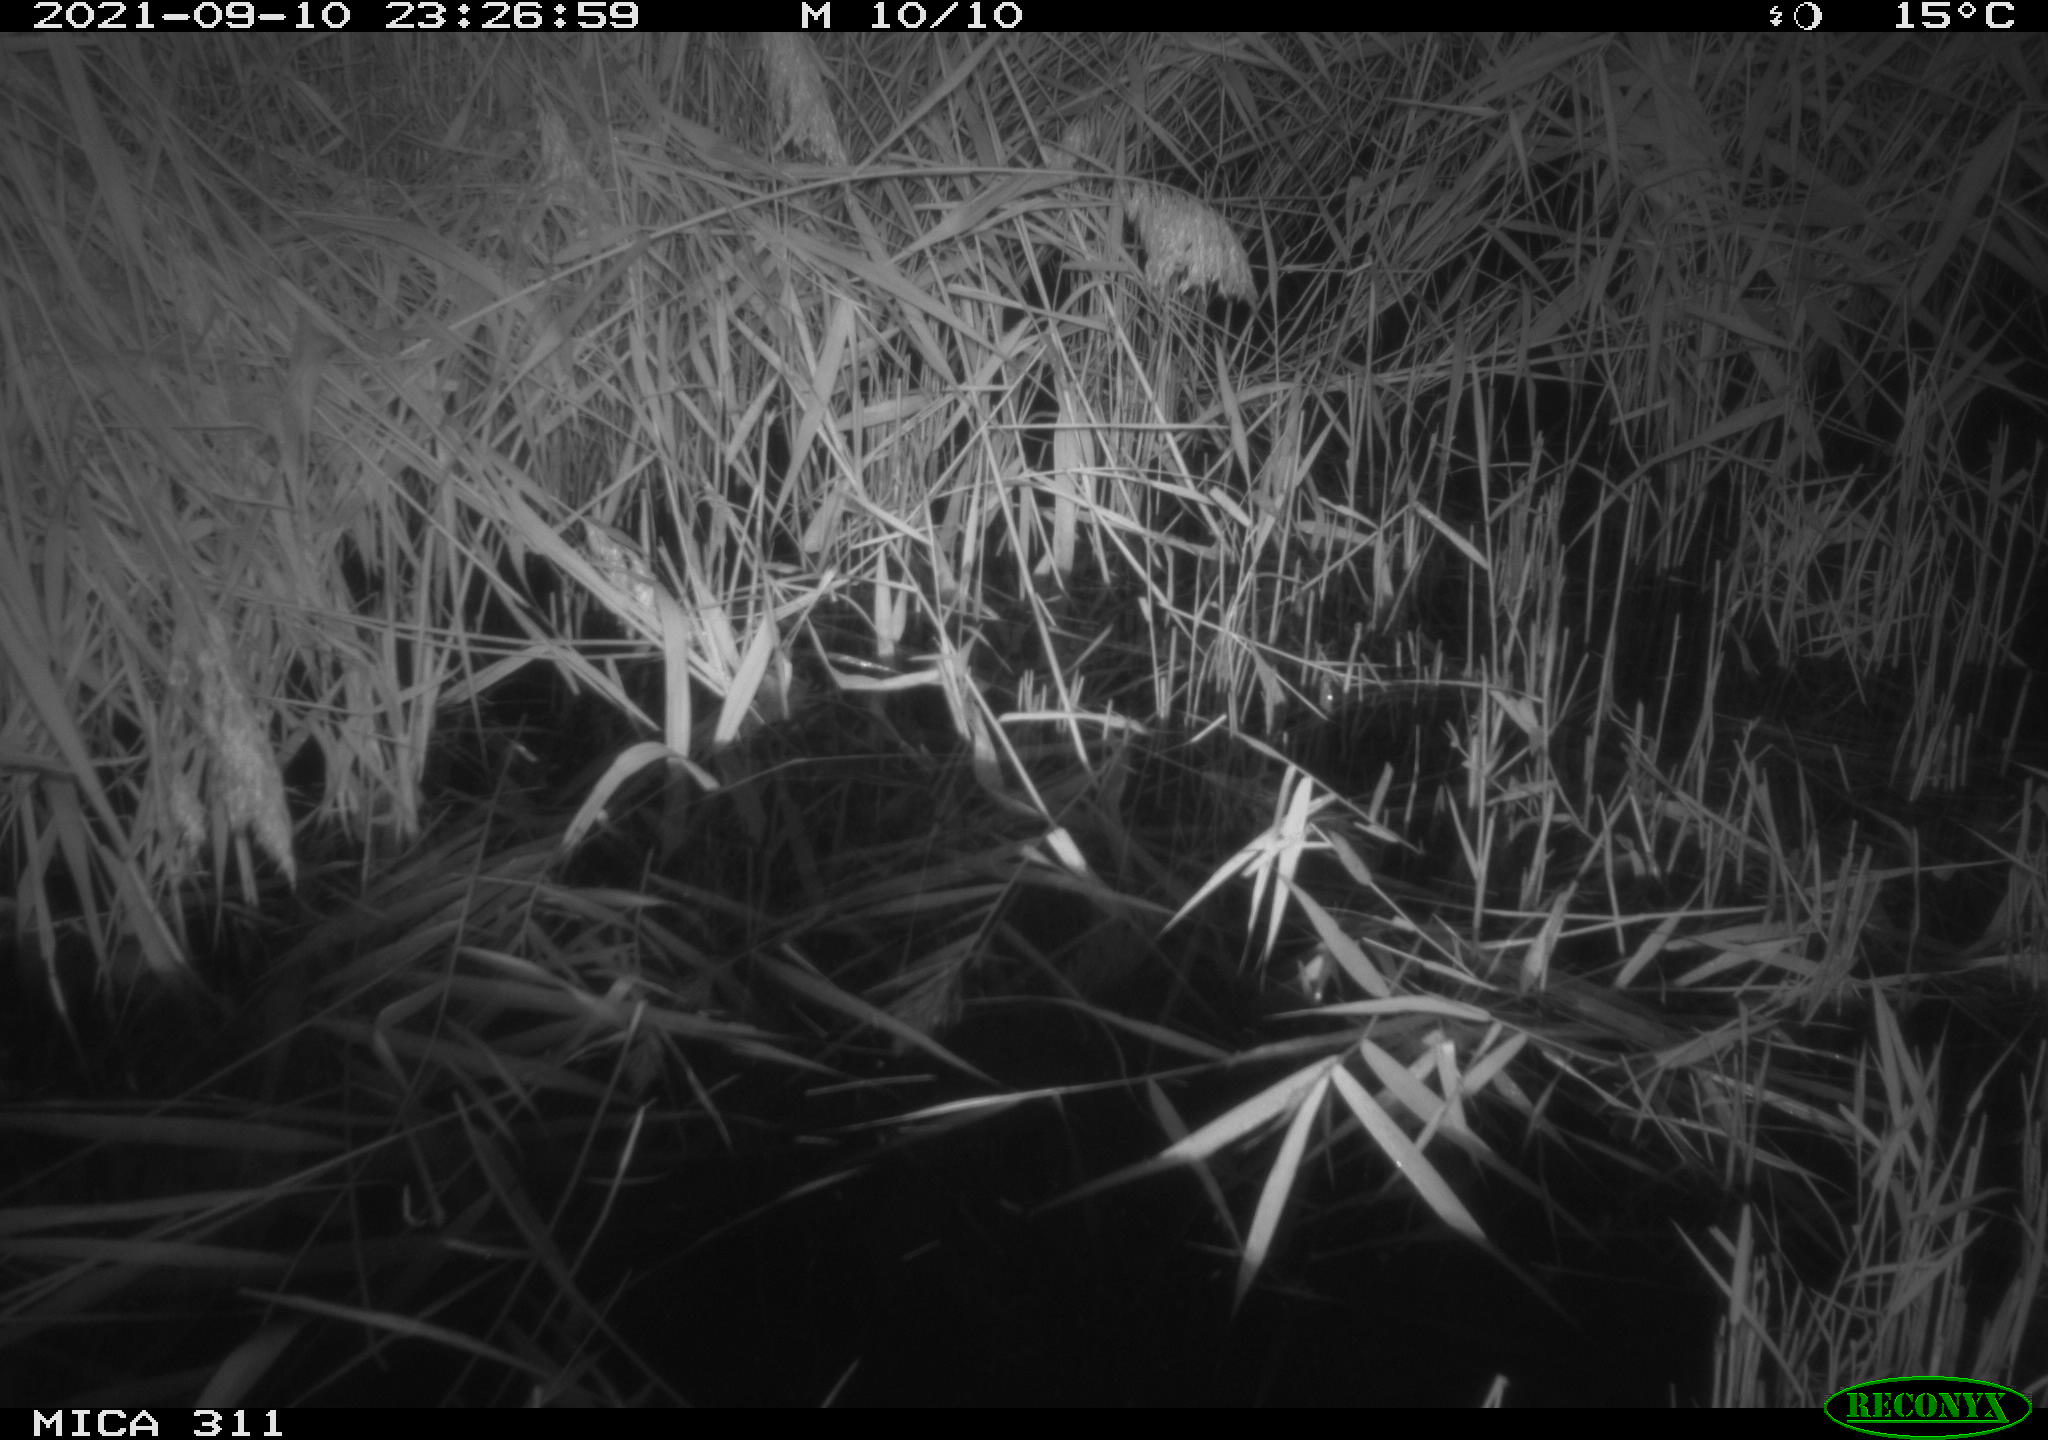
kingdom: Animalia
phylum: Chordata
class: Mammalia
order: Rodentia
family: Muridae
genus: Rattus
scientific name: Rattus norvegicus
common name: Brown rat
